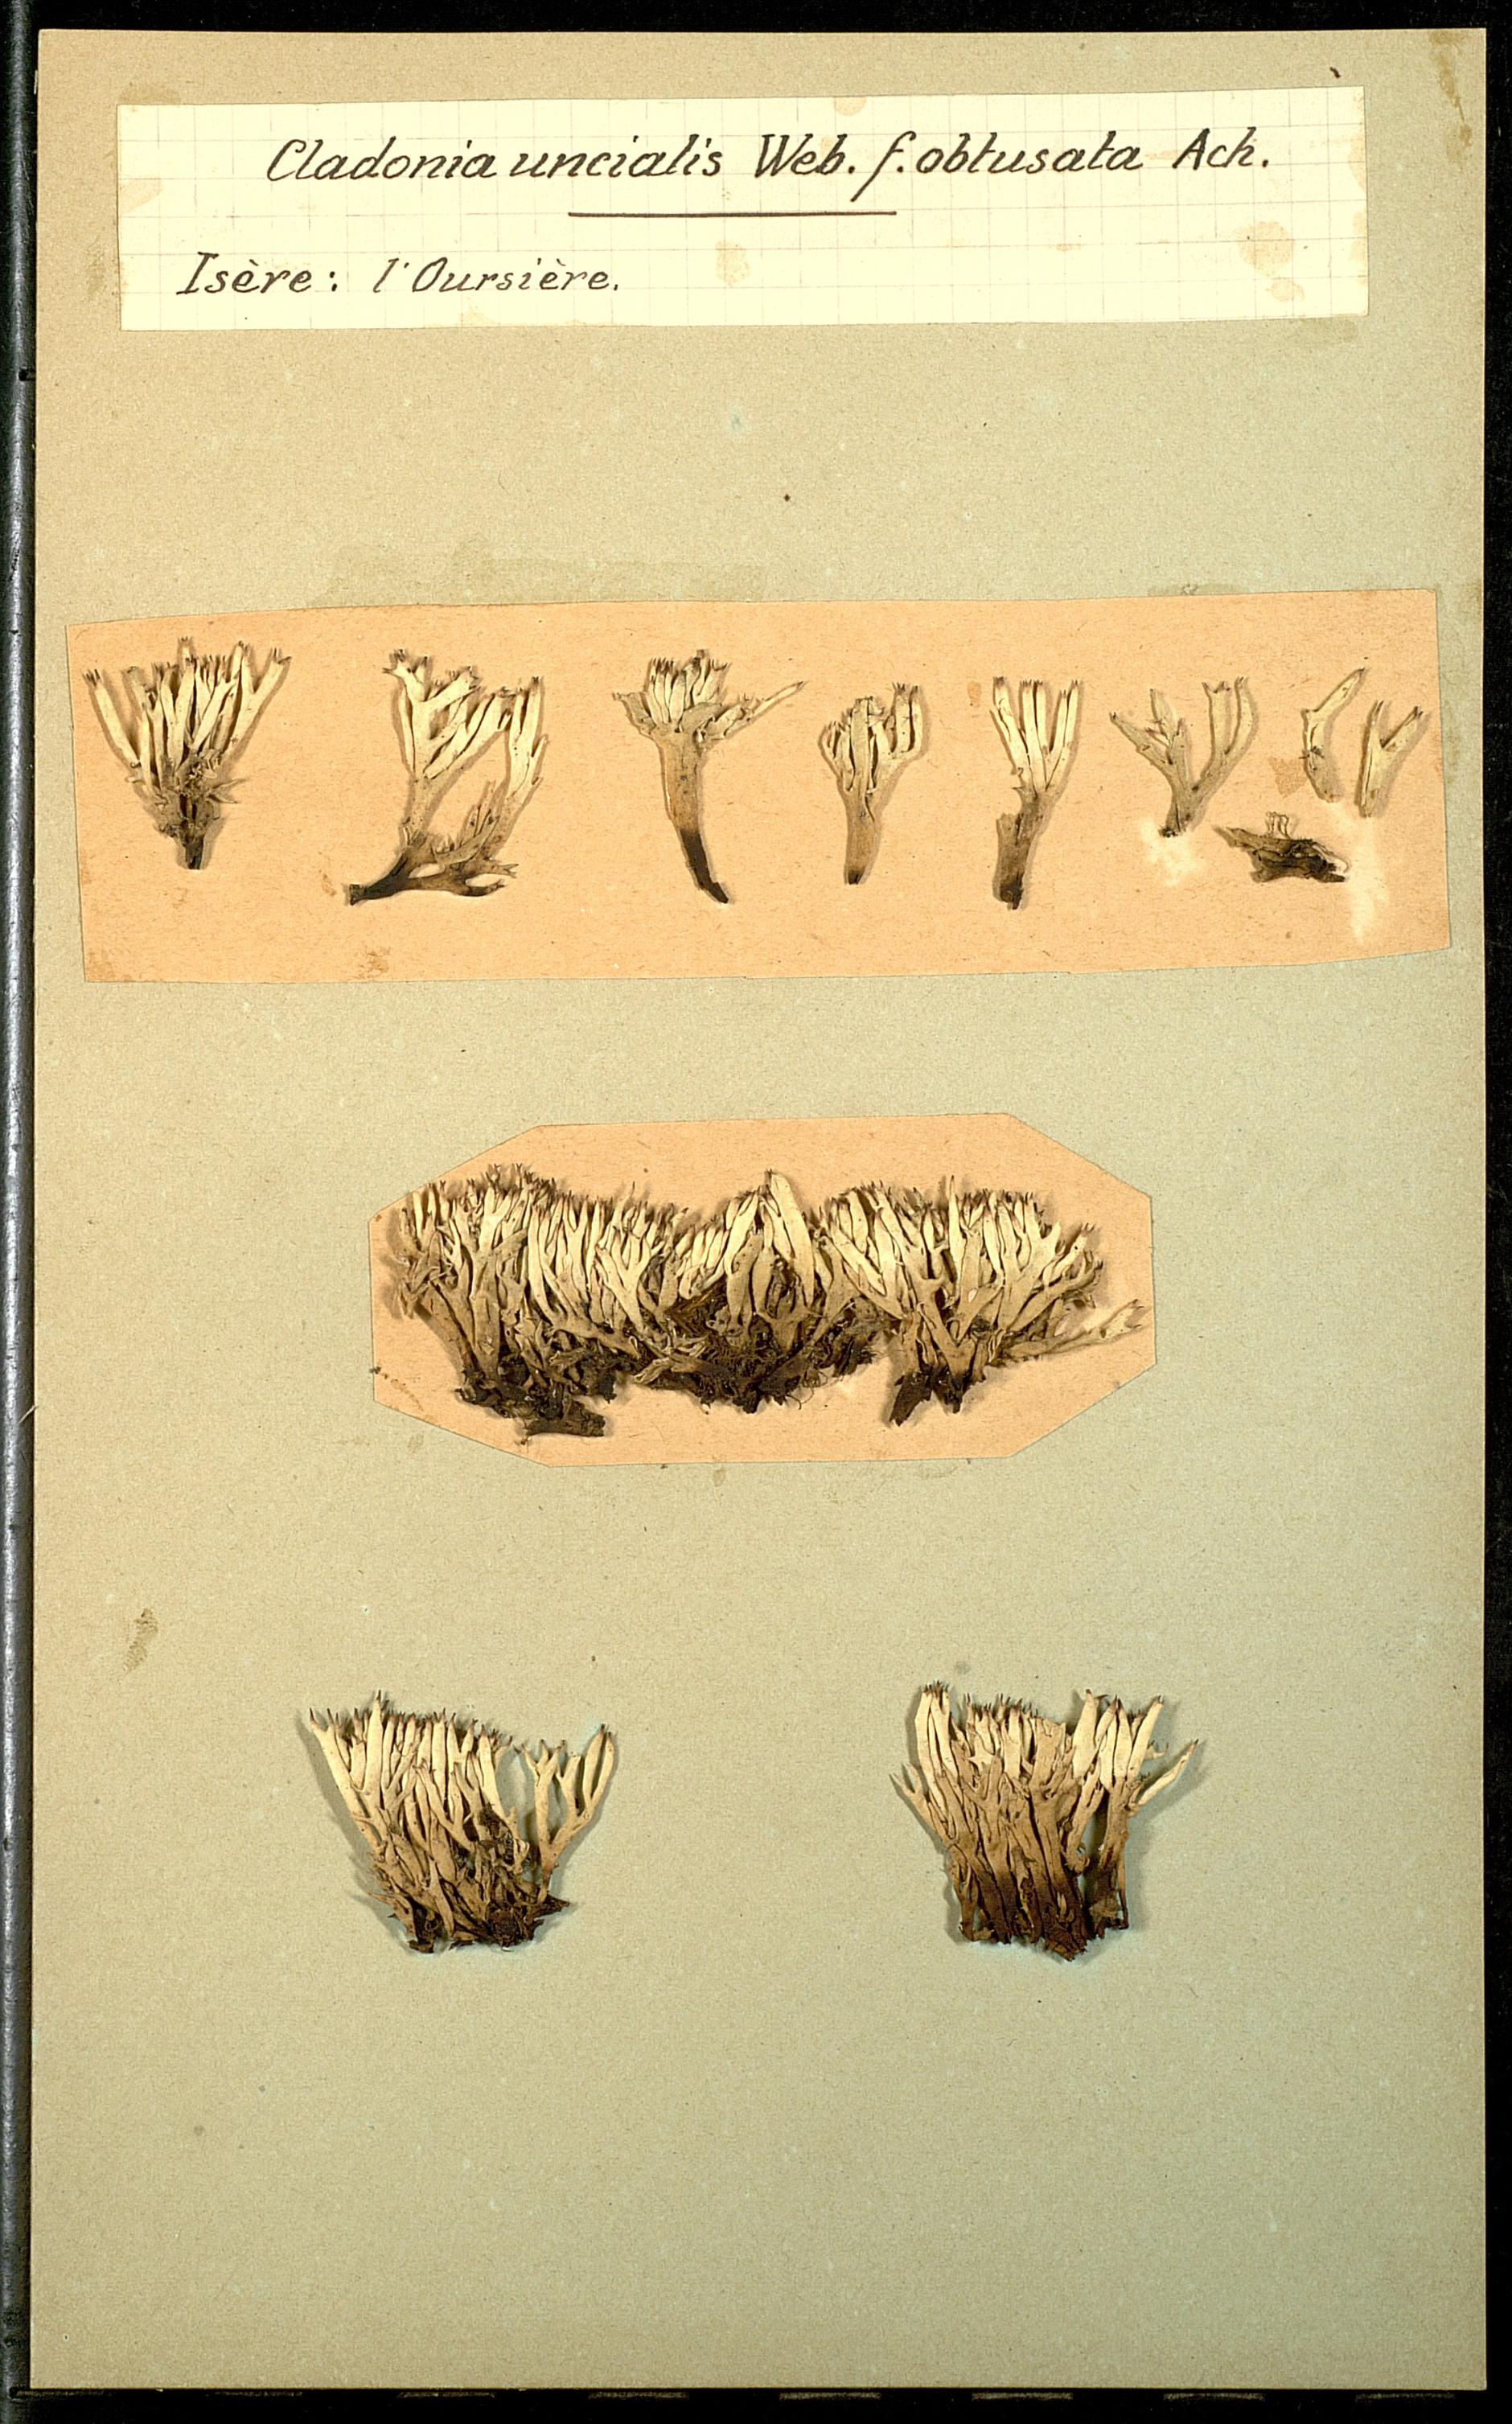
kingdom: Fungi
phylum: Ascomycota
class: Lecanoromycetes
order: Lecanorales
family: Cladoniaceae
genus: Cladonia
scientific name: Cladonia uncialis
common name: Thorn lichen
